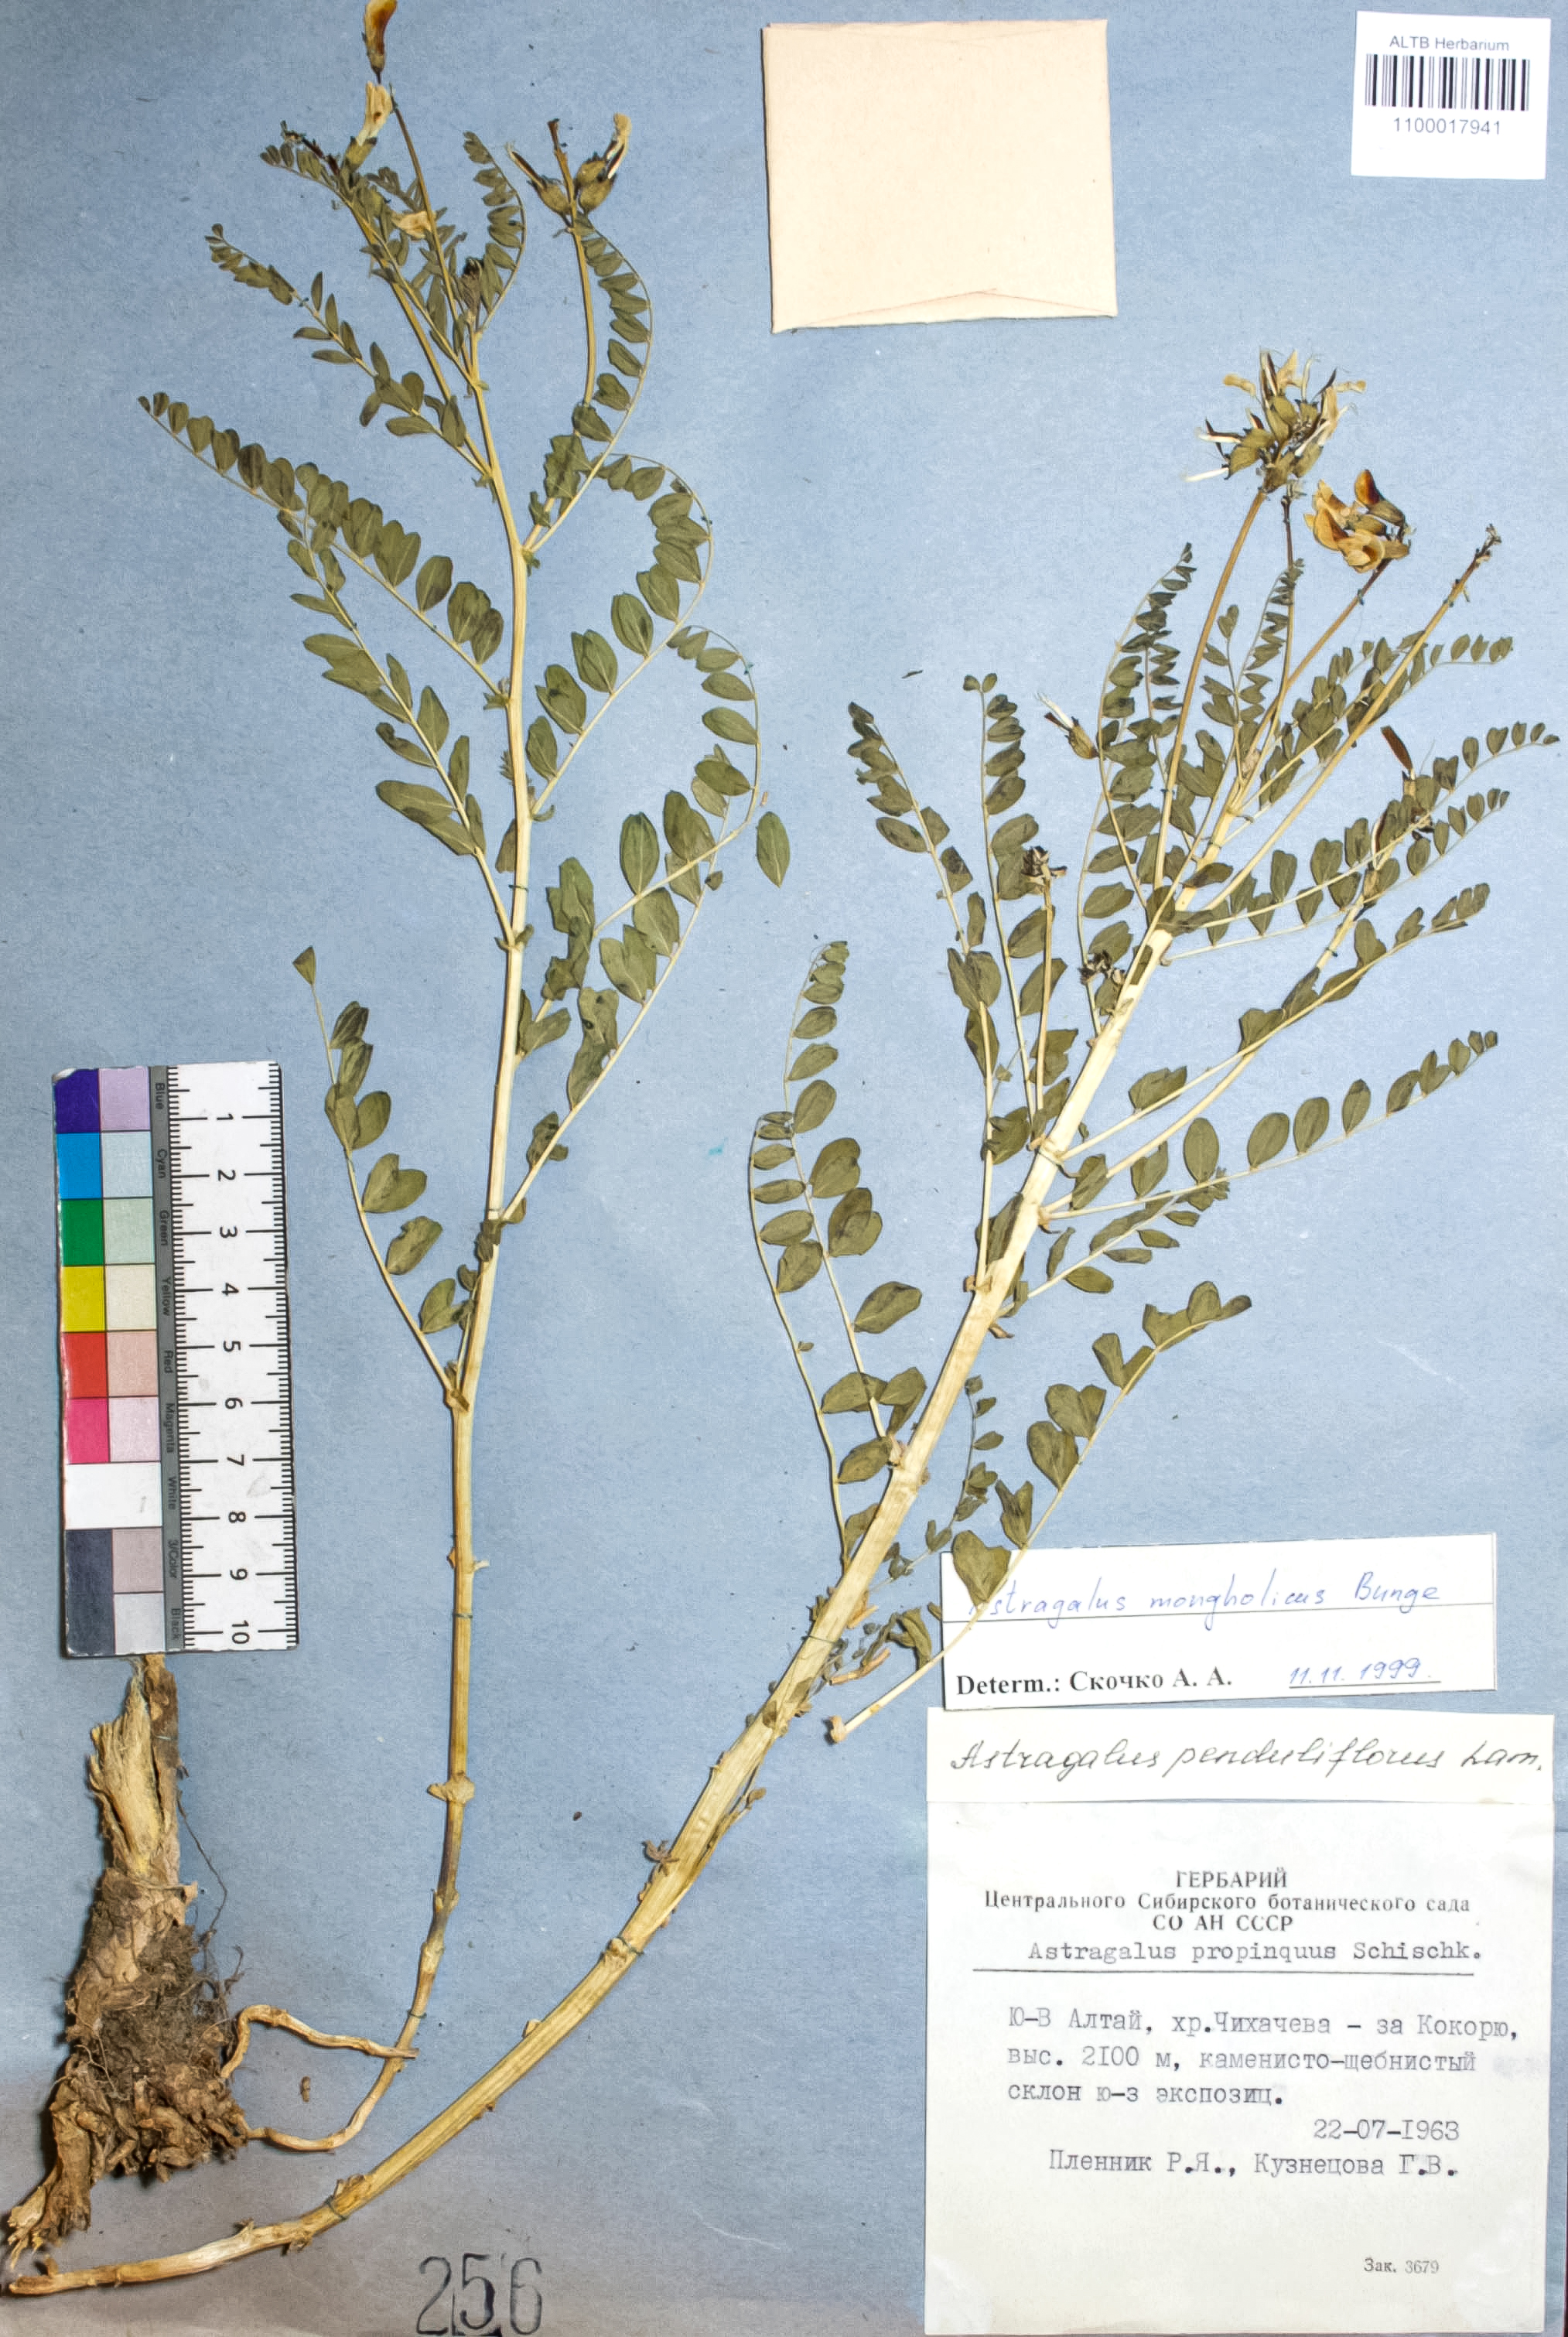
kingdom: Plantae
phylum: Tracheophyta
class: Magnoliopsida
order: Fabales
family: Fabaceae
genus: Astragalus
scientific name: Astragalus mongolicus
